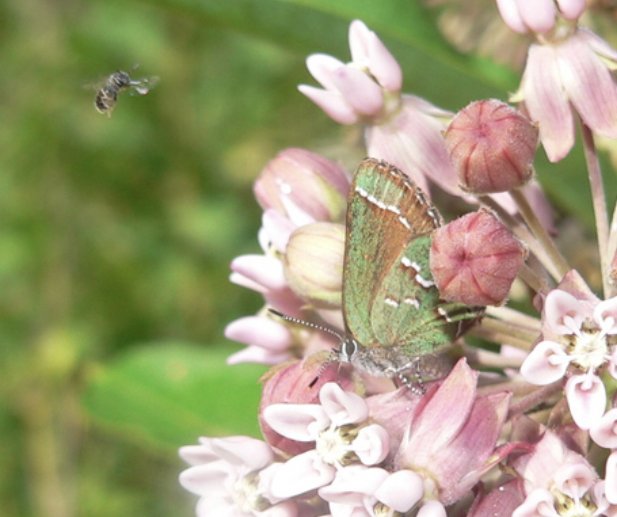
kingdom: Animalia
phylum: Arthropoda
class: Insecta
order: Lepidoptera
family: Lycaenidae
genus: Mitoura
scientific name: Mitoura gryneus
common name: Juniper Hairstreak
